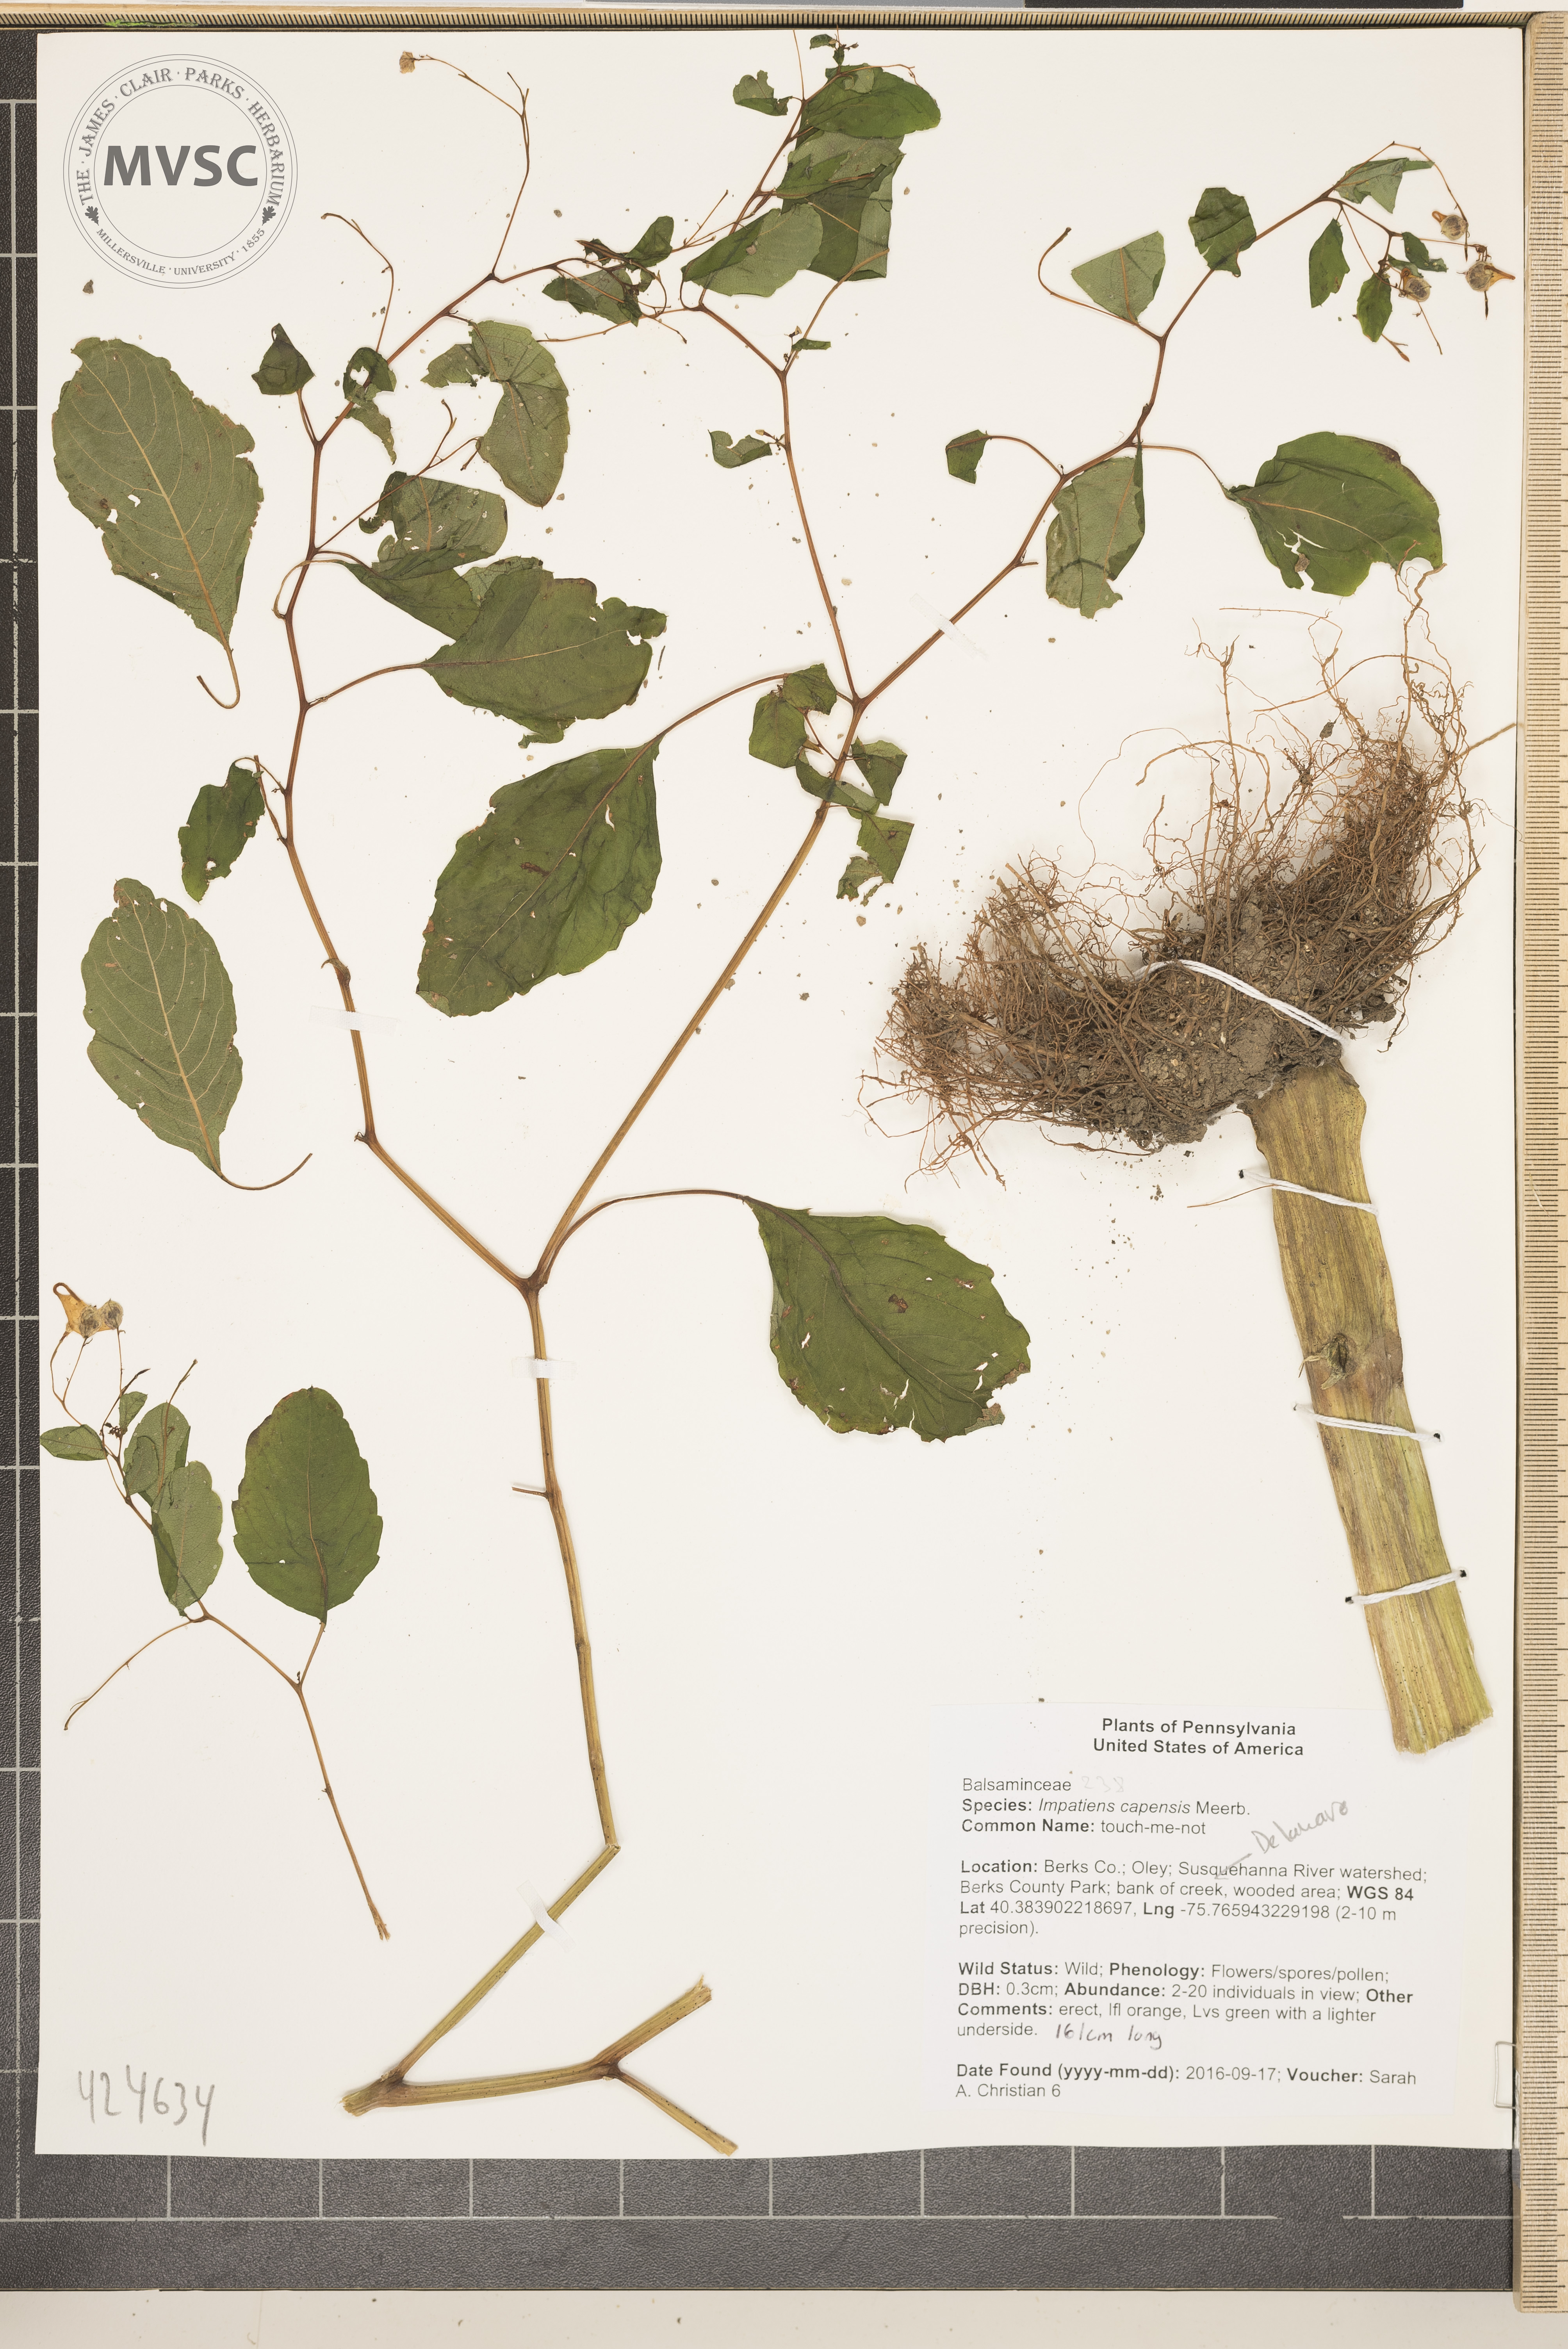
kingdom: Plantae
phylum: Tracheophyta
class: Magnoliopsida
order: Ericales
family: Balsaminaceae
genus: Impatiens
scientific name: Impatiens capensis
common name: touch-me-not
